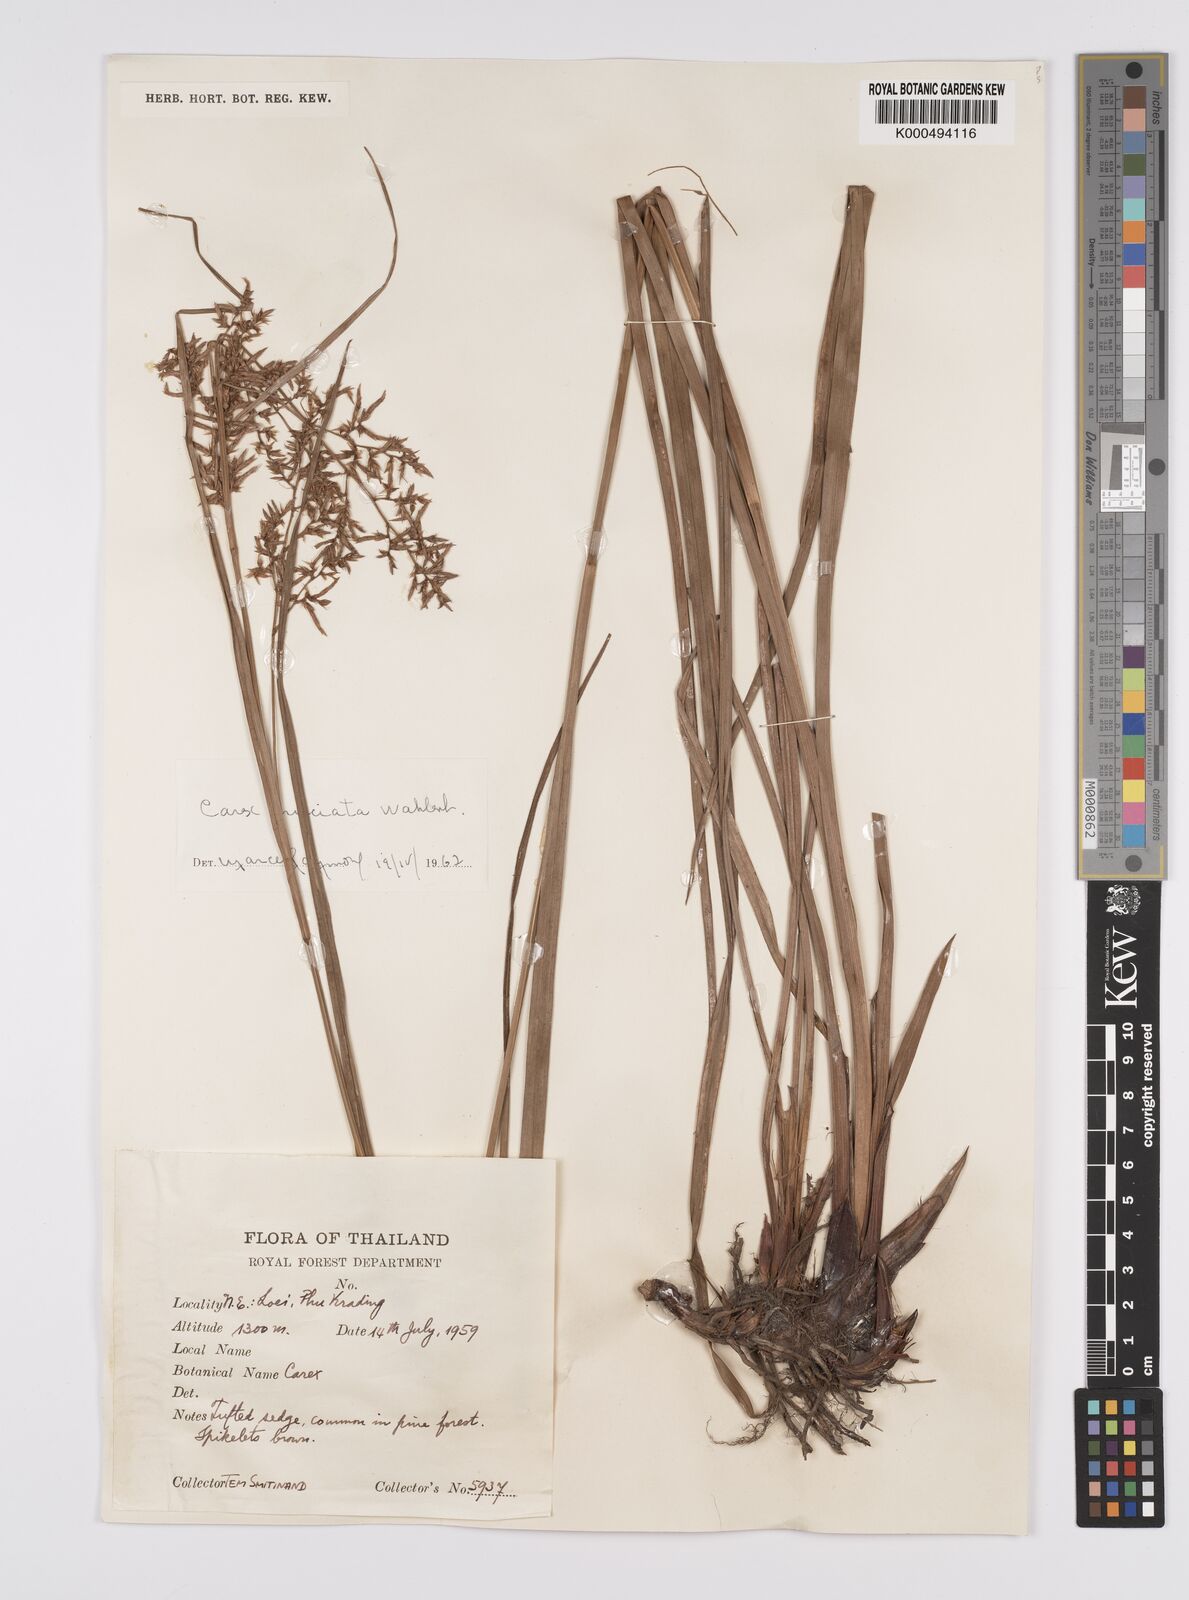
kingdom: Plantae
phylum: Tracheophyta
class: Liliopsida
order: Poales
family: Cyperaceae
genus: Carex
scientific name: Carex cruciata
